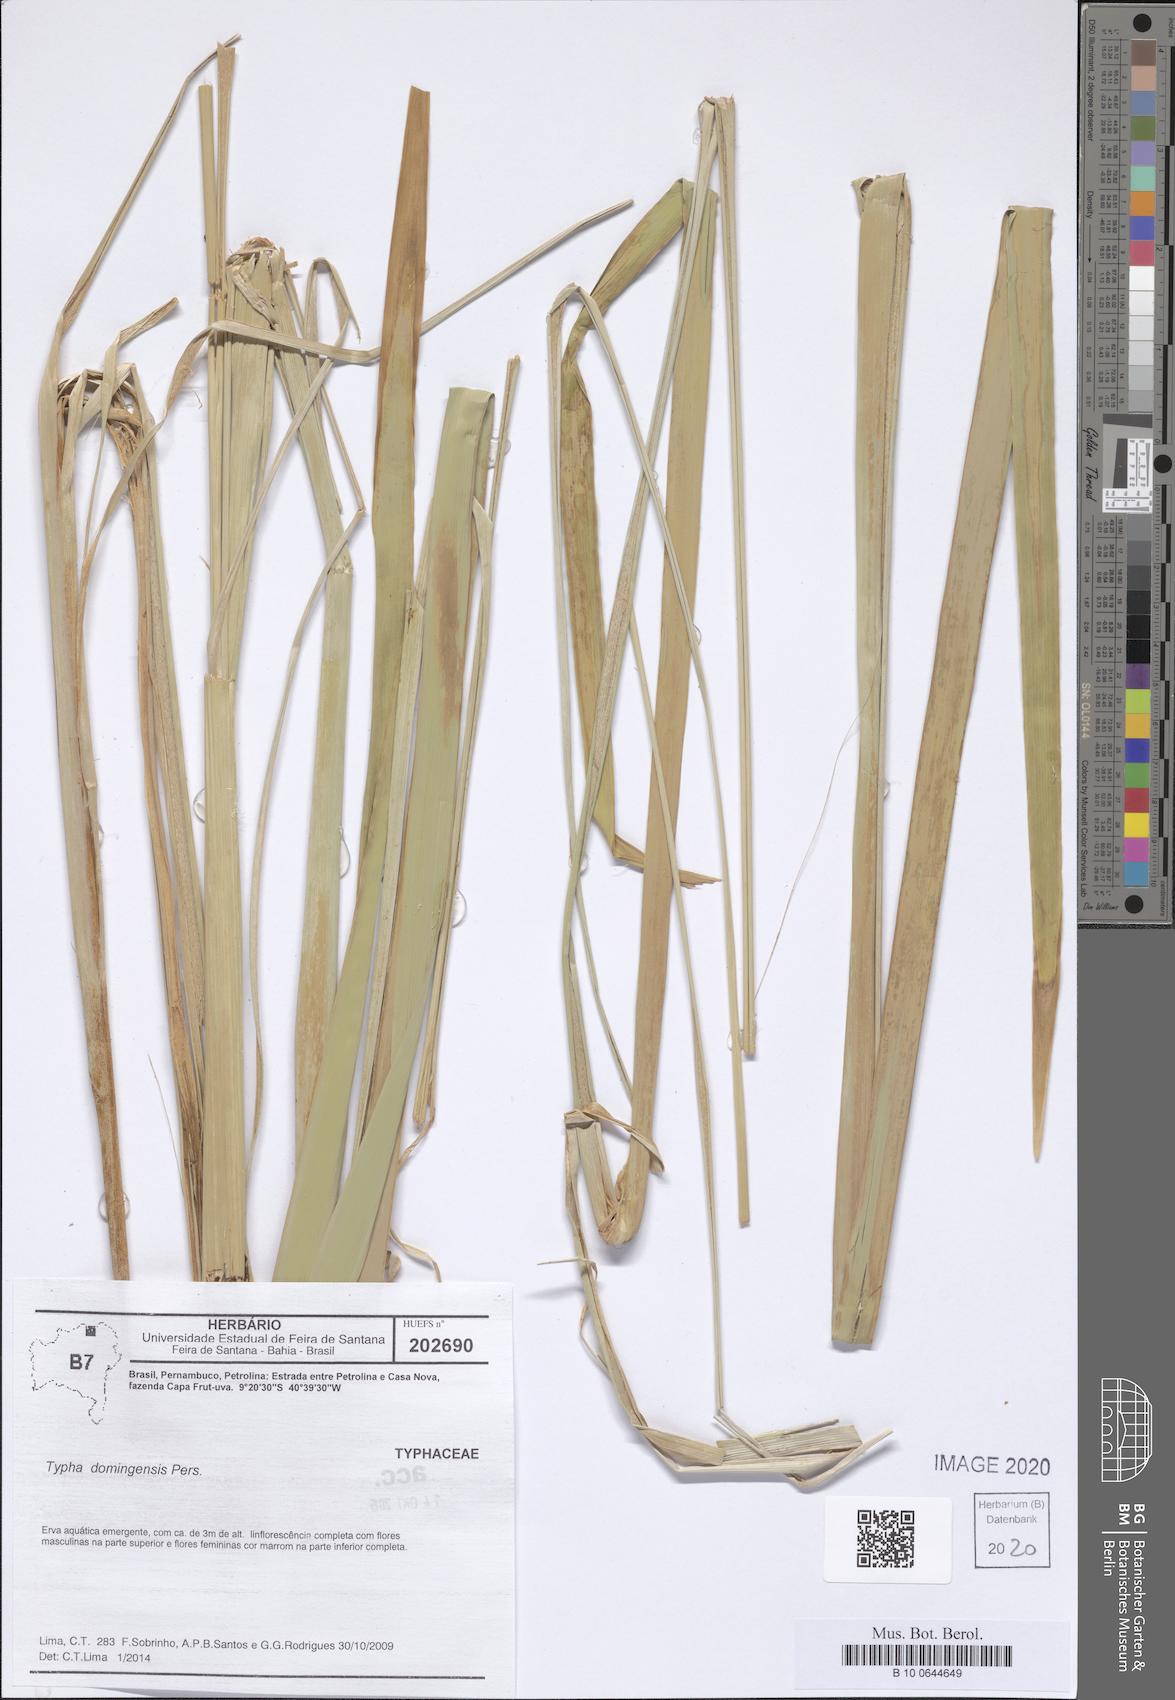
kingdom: Plantae
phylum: Tracheophyta
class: Liliopsida
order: Poales
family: Typhaceae
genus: Typha
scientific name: Typha domingensis
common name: Southern cattail
